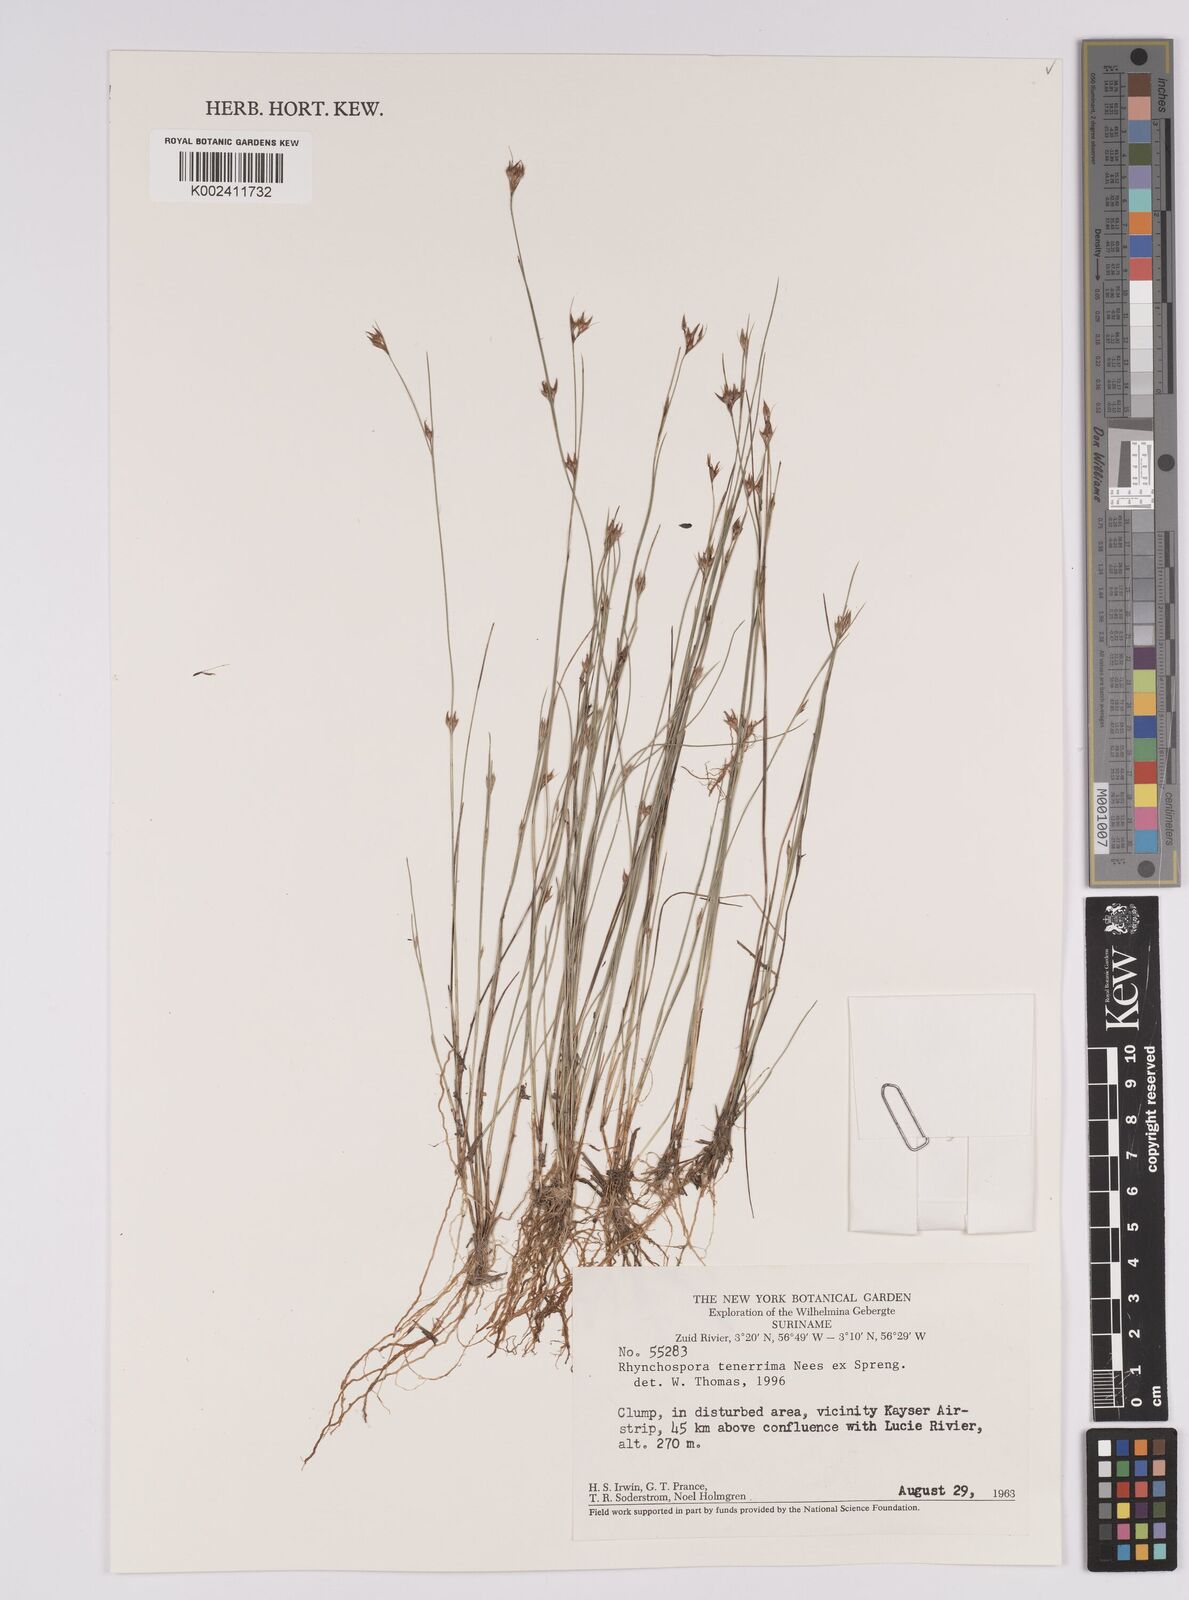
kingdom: Plantae
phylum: Tracheophyta
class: Liliopsida
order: Poales
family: Cyperaceae
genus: Rhynchospora
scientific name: Rhynchospora tenerrima
